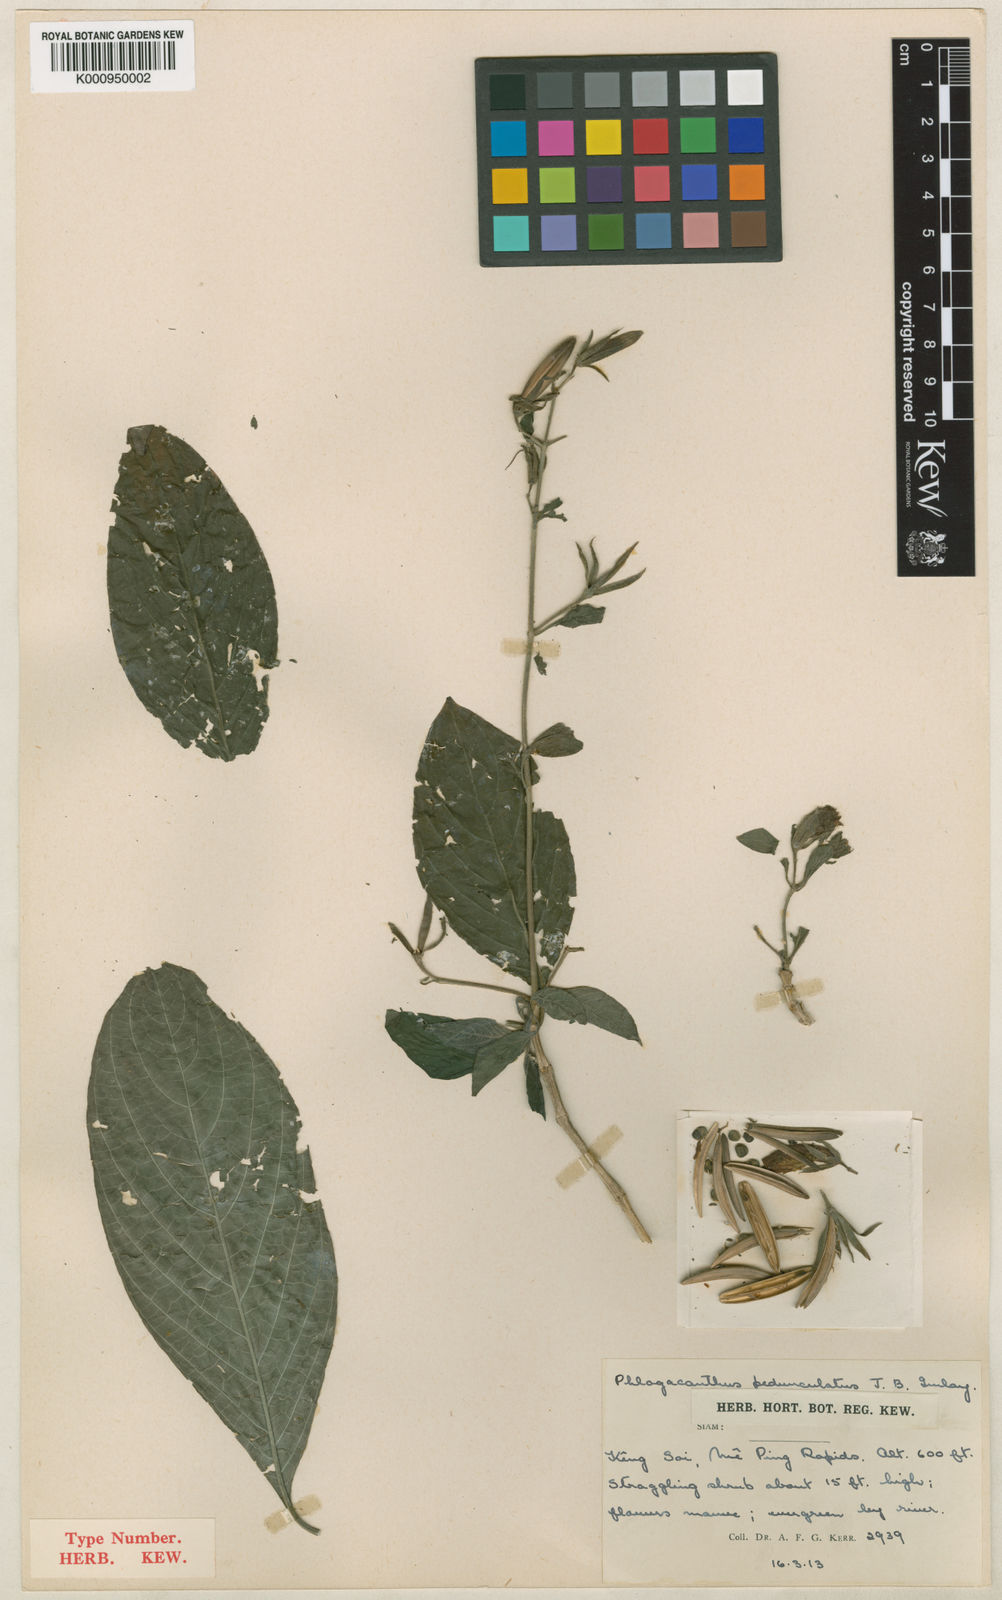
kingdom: Plantae
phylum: Tracheophyta
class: Magnoliopsida
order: Lamiales
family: Acanthaceae
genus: Phlogacanthus
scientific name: Phlogacanthus pedunculatus
